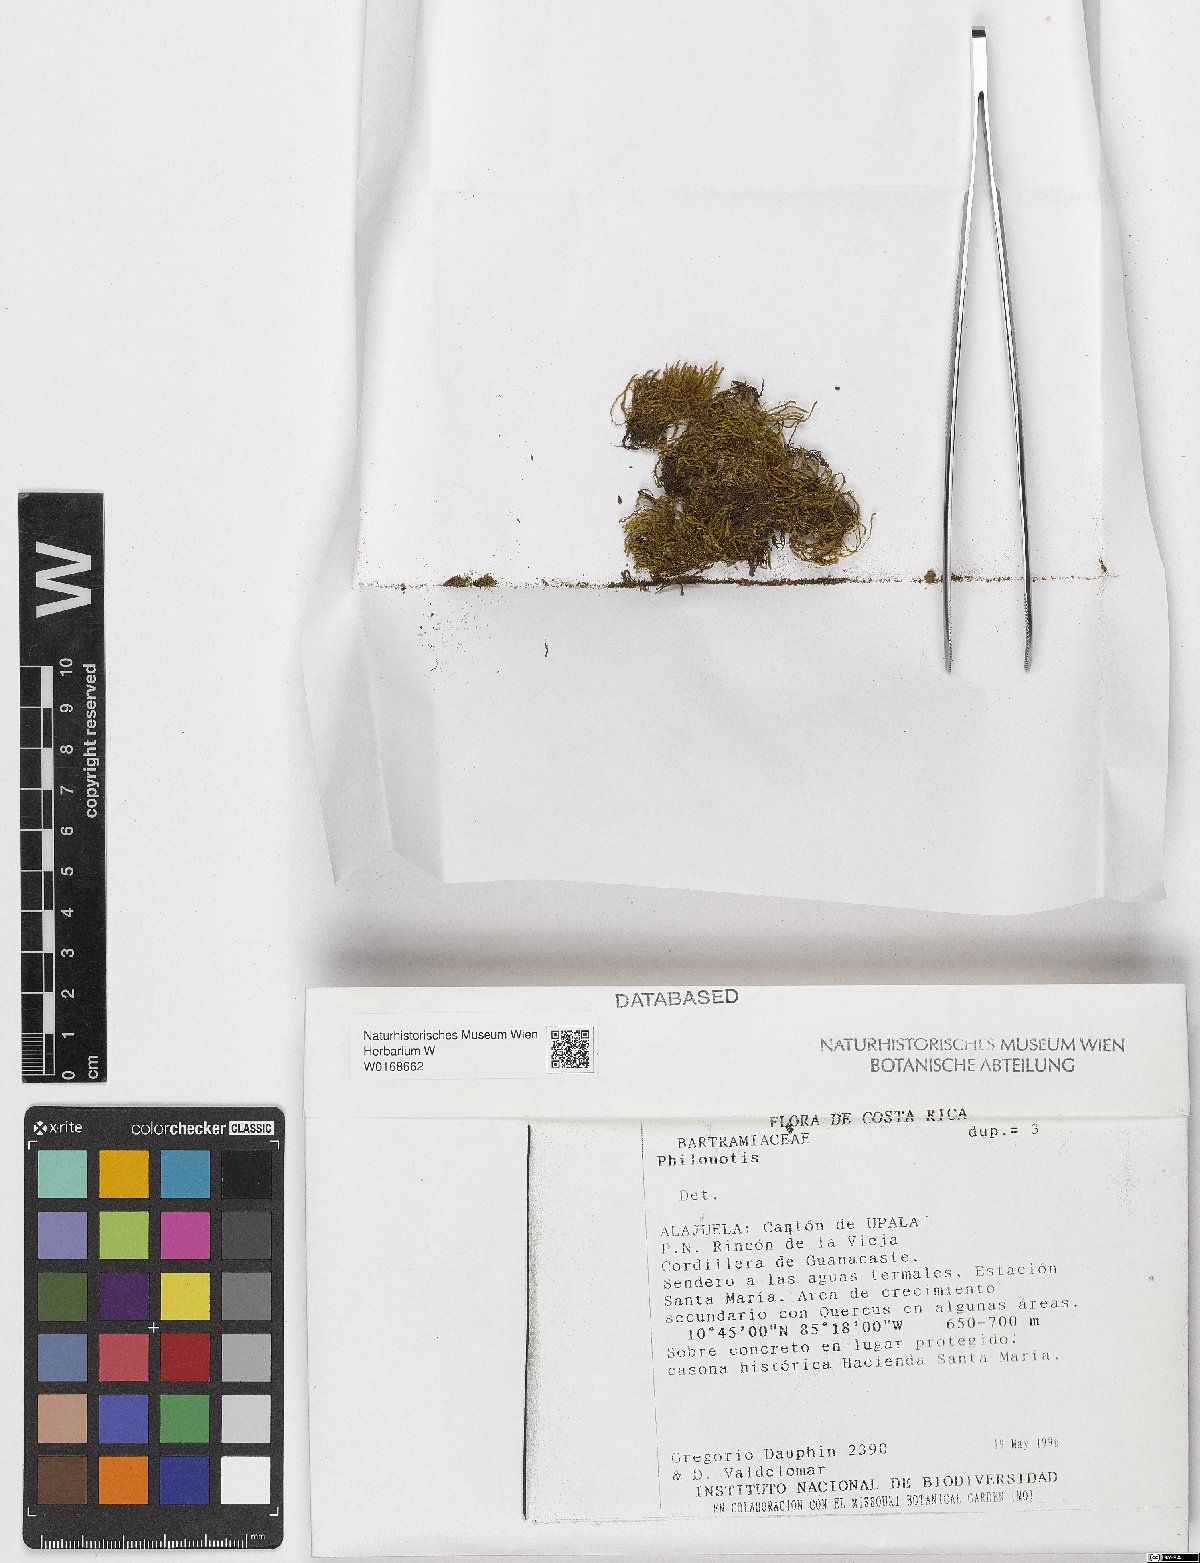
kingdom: Plantae
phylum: Bryophyta
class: Bryopsida
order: Bartramiales
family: Bartramiaceae
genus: Philonotis
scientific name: Philonotis
